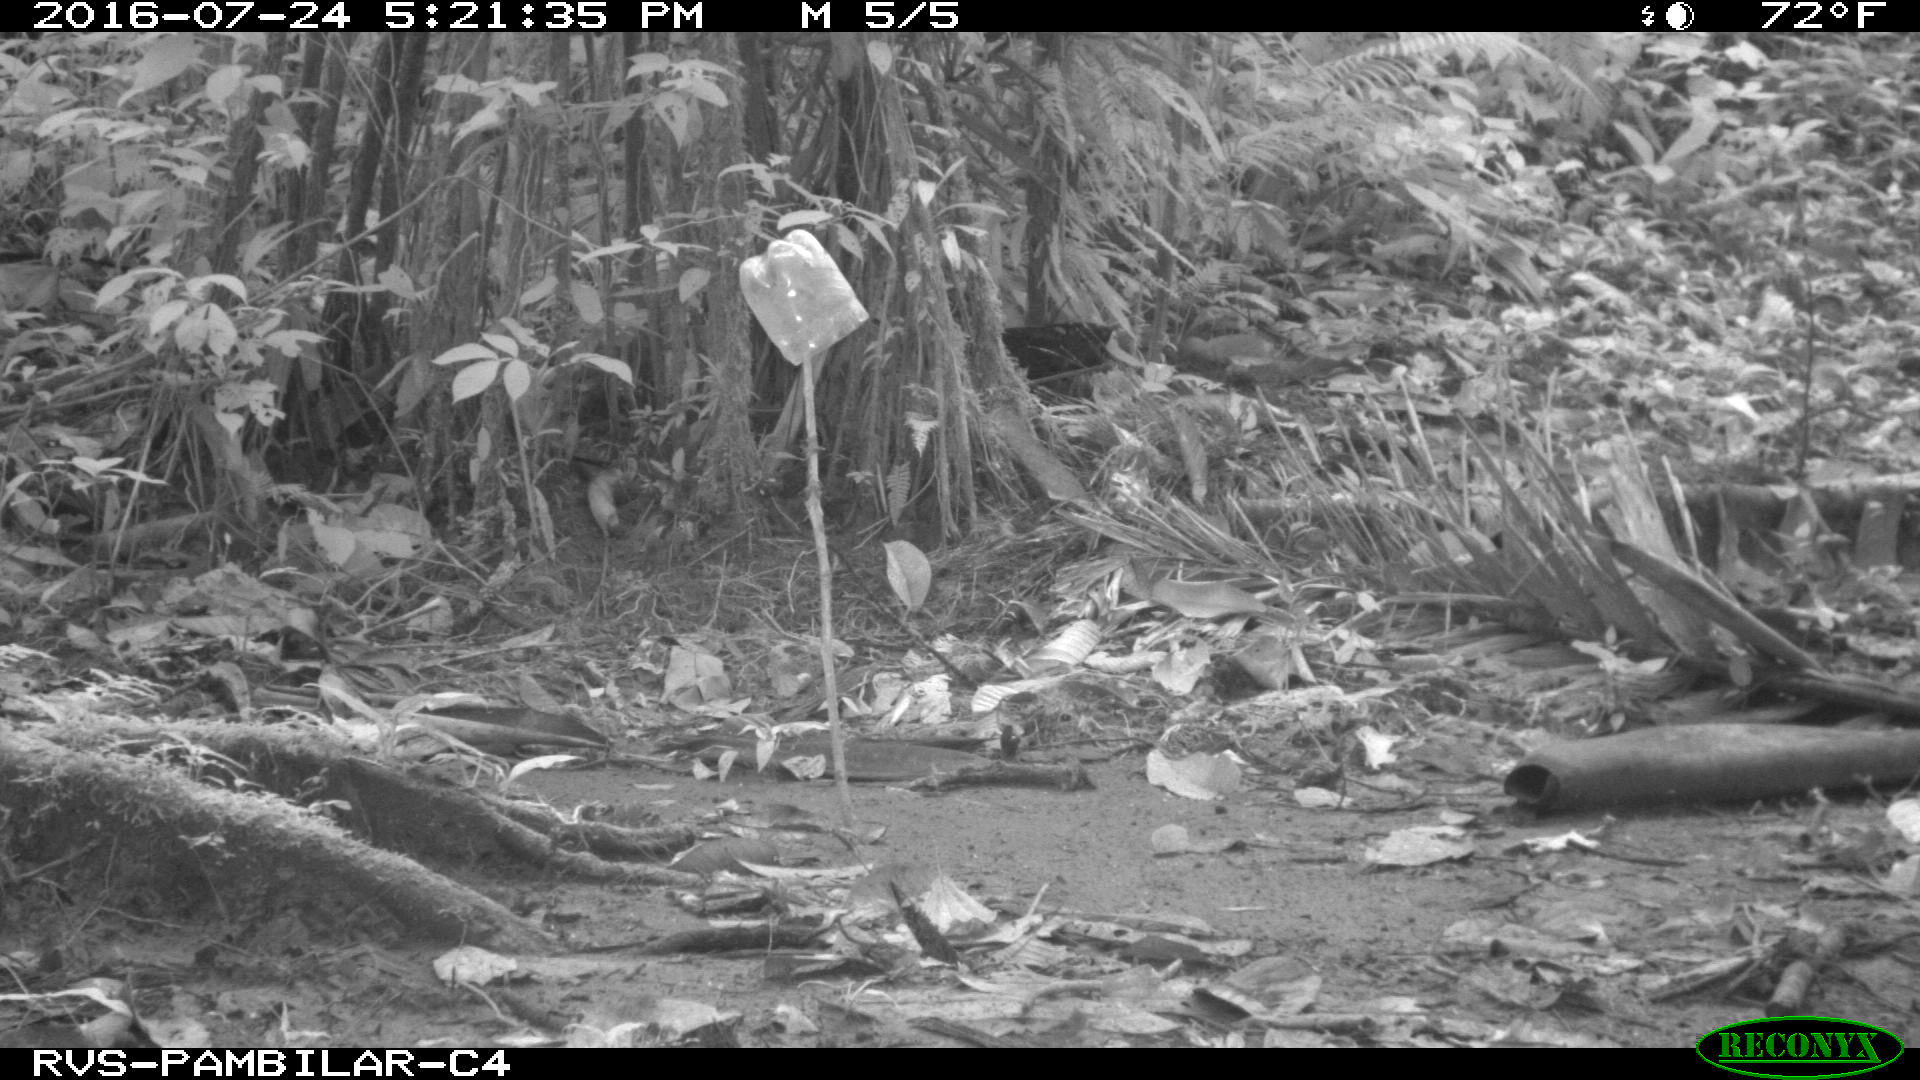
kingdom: Animalia
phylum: Chordata
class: Mammalia
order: Rodentia
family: Dasyproctidae
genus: Dasyprocta
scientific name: Dasyprocta punctata
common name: Central american agouti
